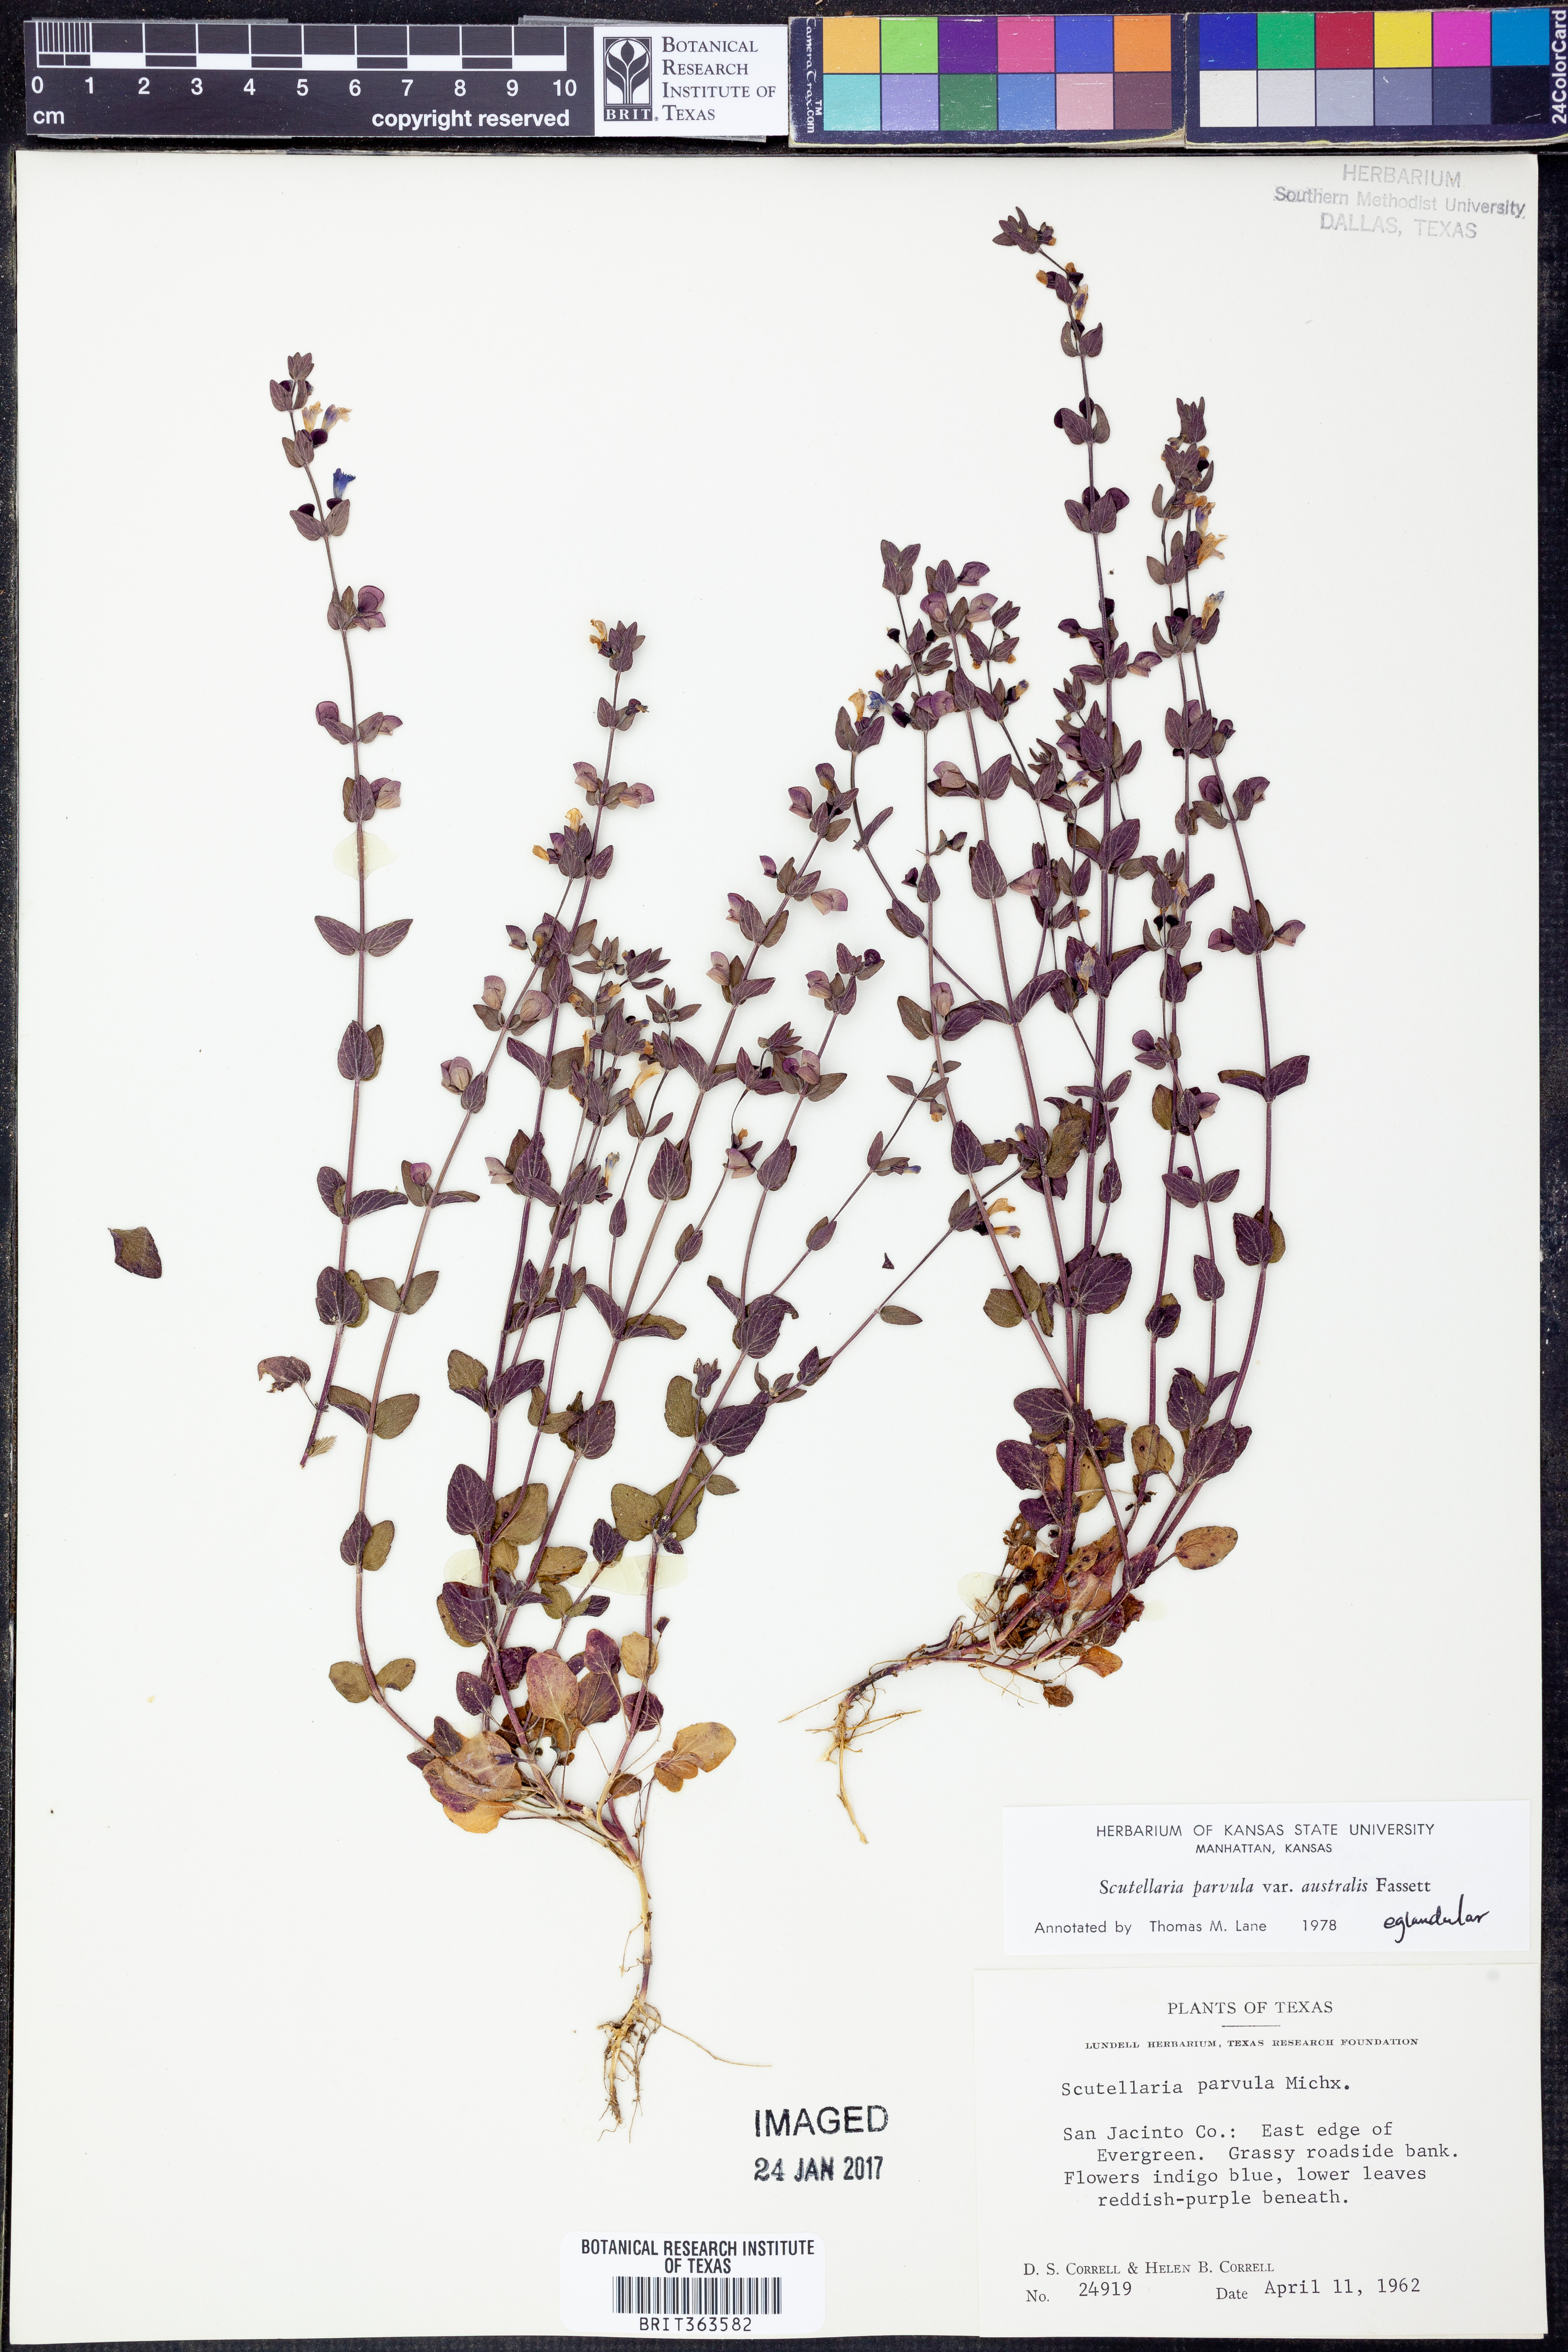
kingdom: Plantae
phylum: Tracheophyta
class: Magnoliopsida
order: Lamiales
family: Lamiaceae
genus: Scutellaria
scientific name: Scutellaria parvula
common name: Little scullcap
